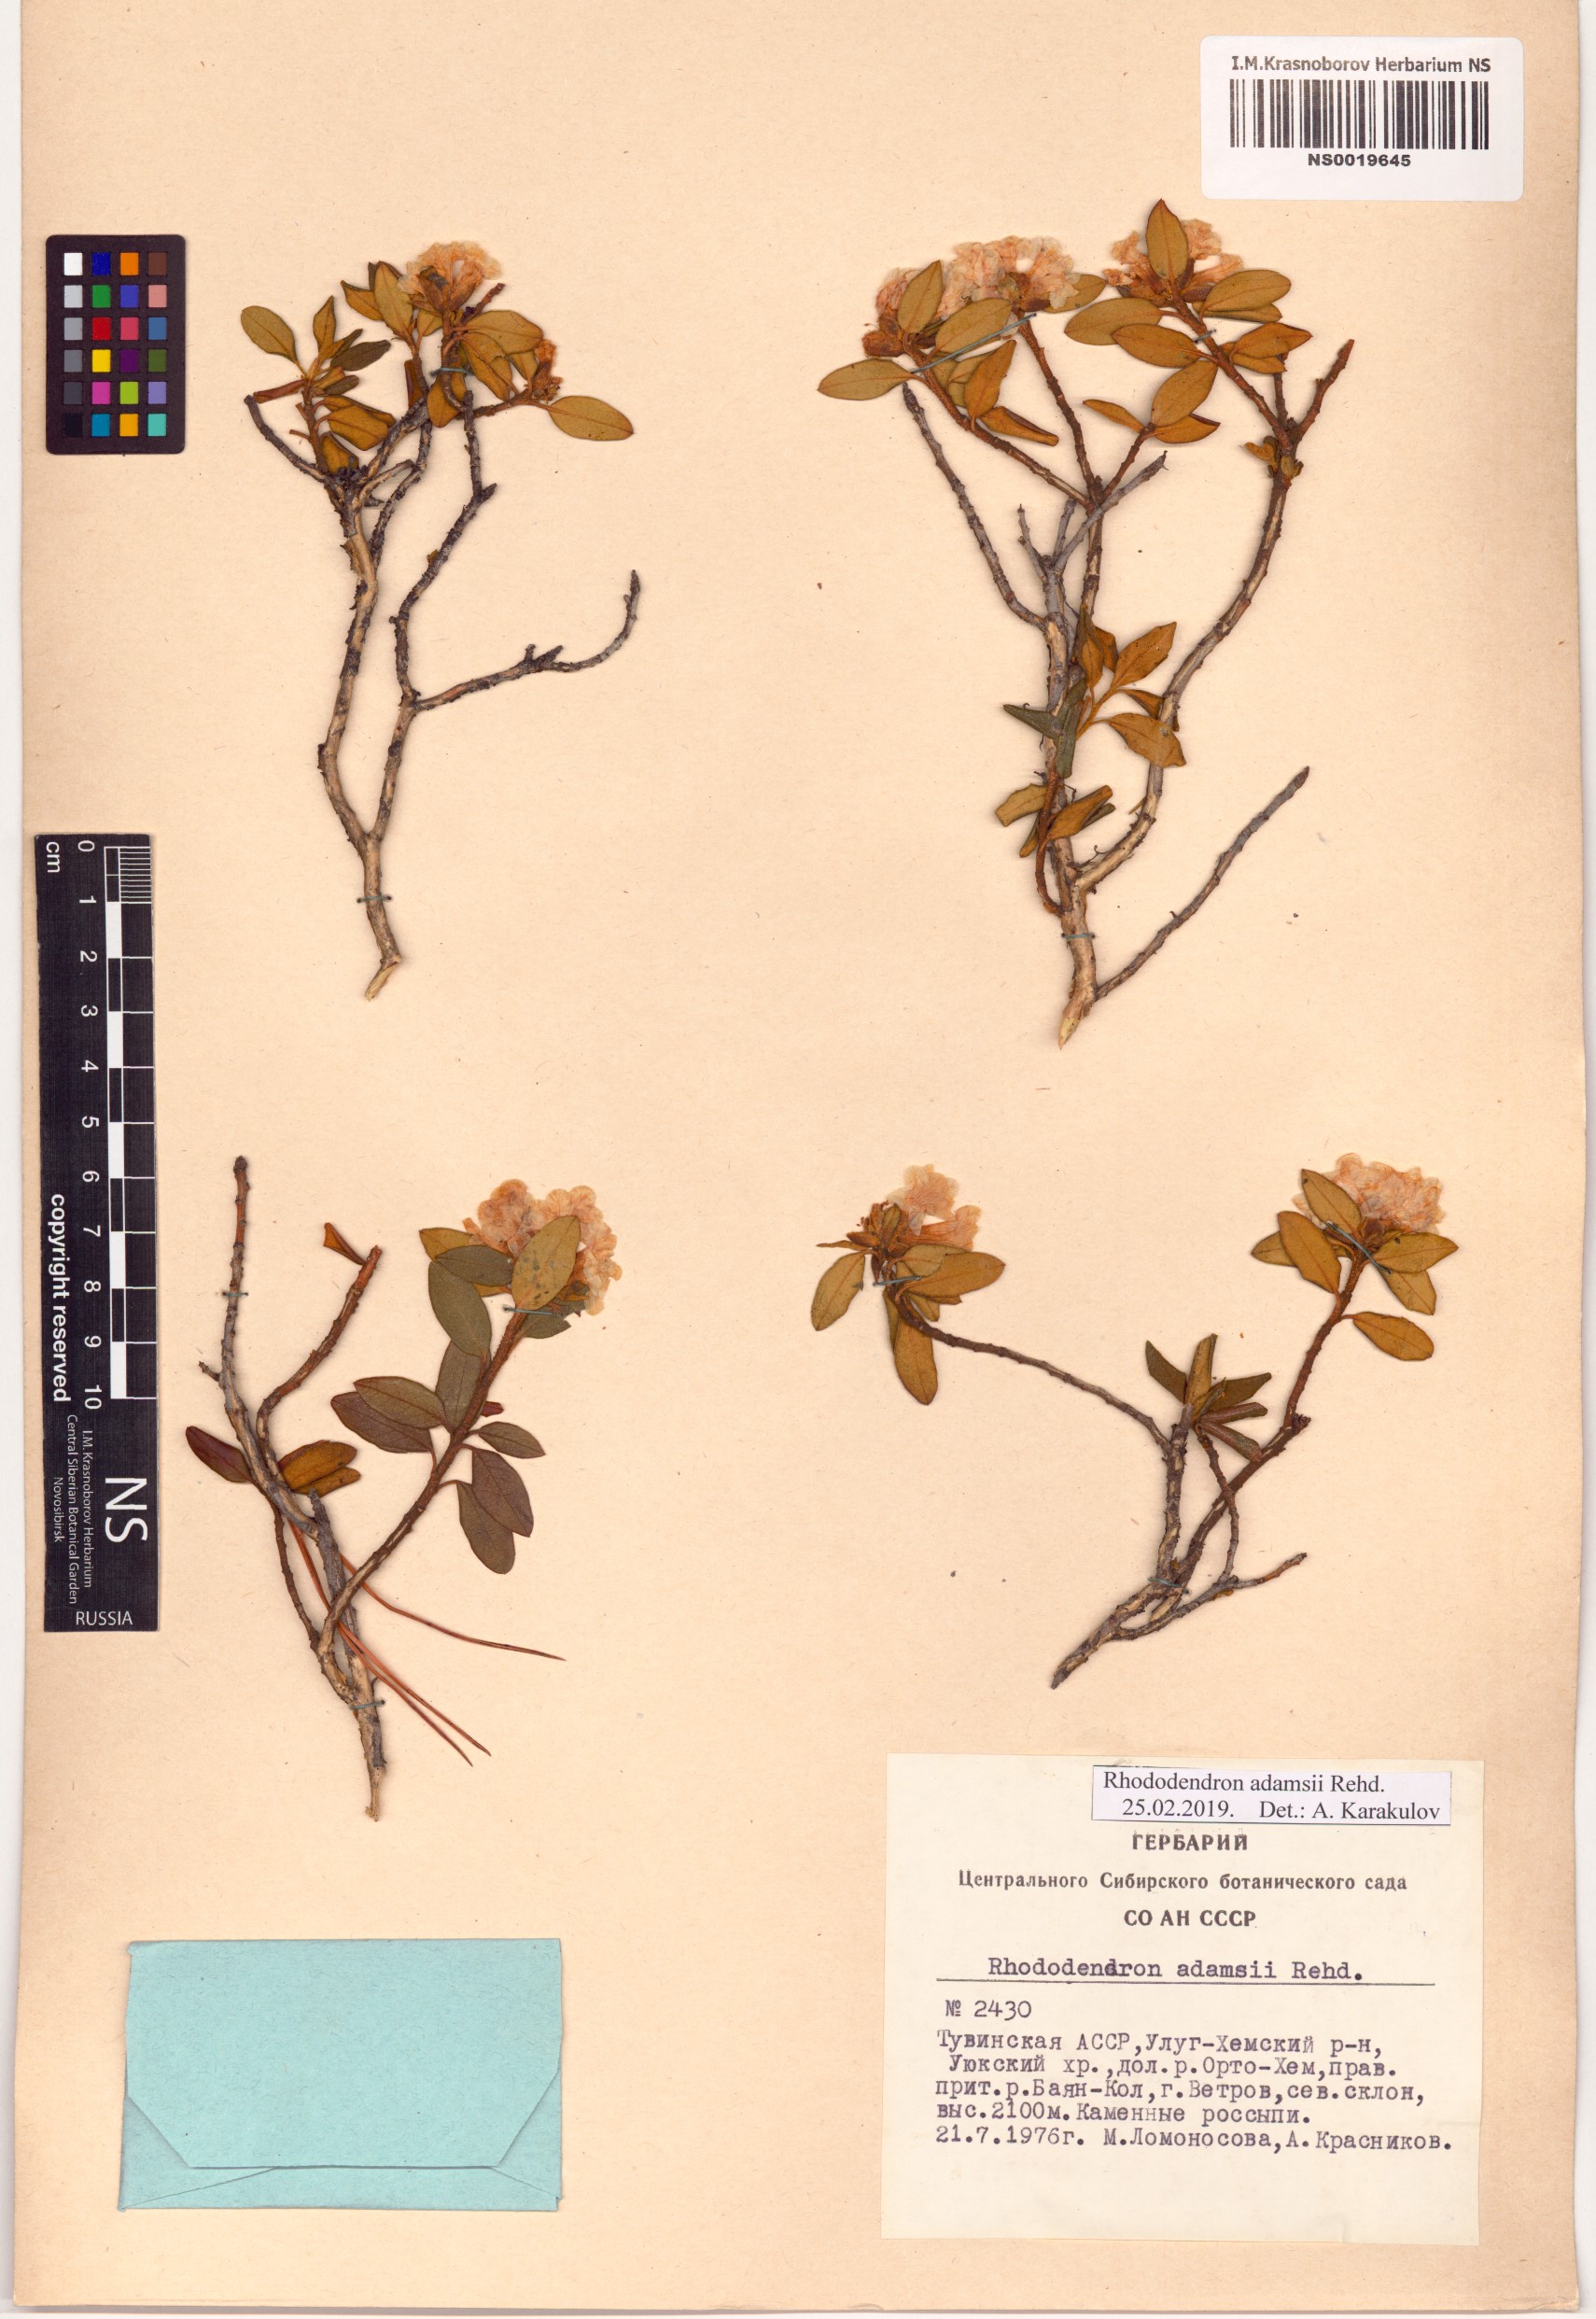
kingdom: Plantae
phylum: Tracheophyta
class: Magnoliopsida
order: Ericales
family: Ericaceae
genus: Rhododendron
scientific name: Rhododendron adamsii
